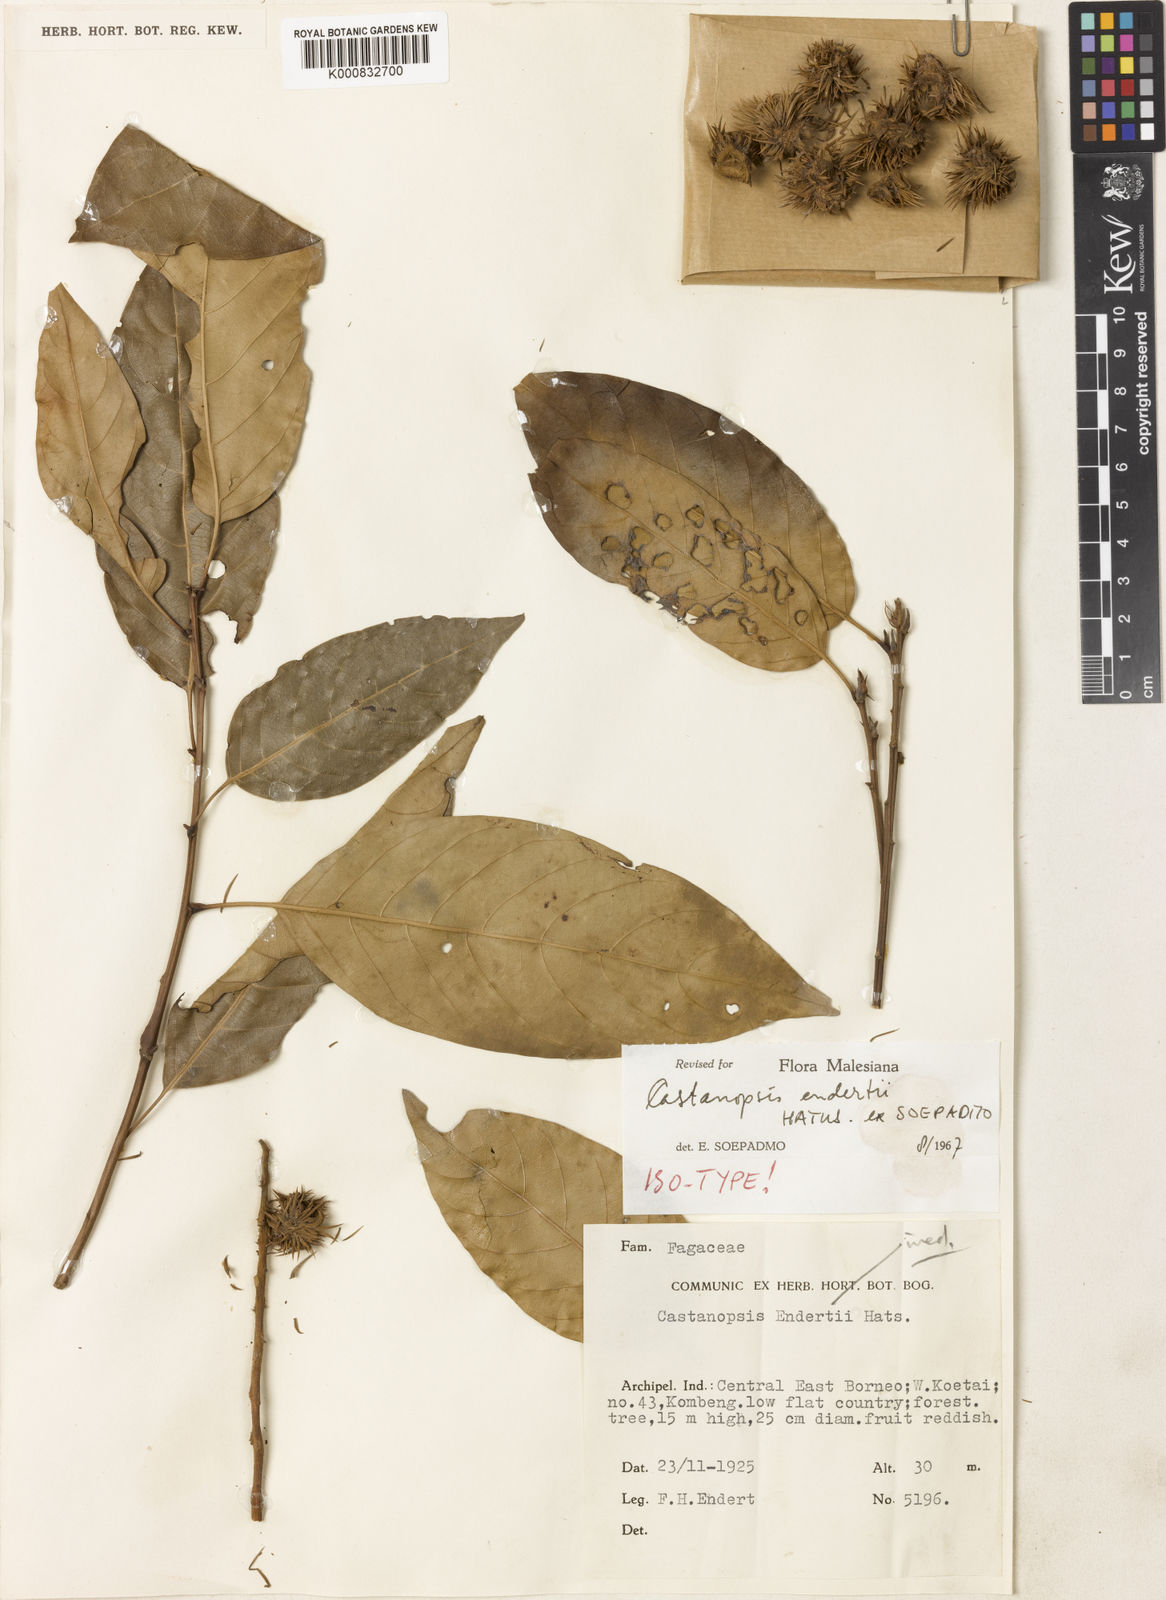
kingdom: Plantae
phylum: Tracheophyta
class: Magnoliopsida
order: Fagales
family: Fagaceae
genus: Castanopsis
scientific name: Castanopsis endertii
